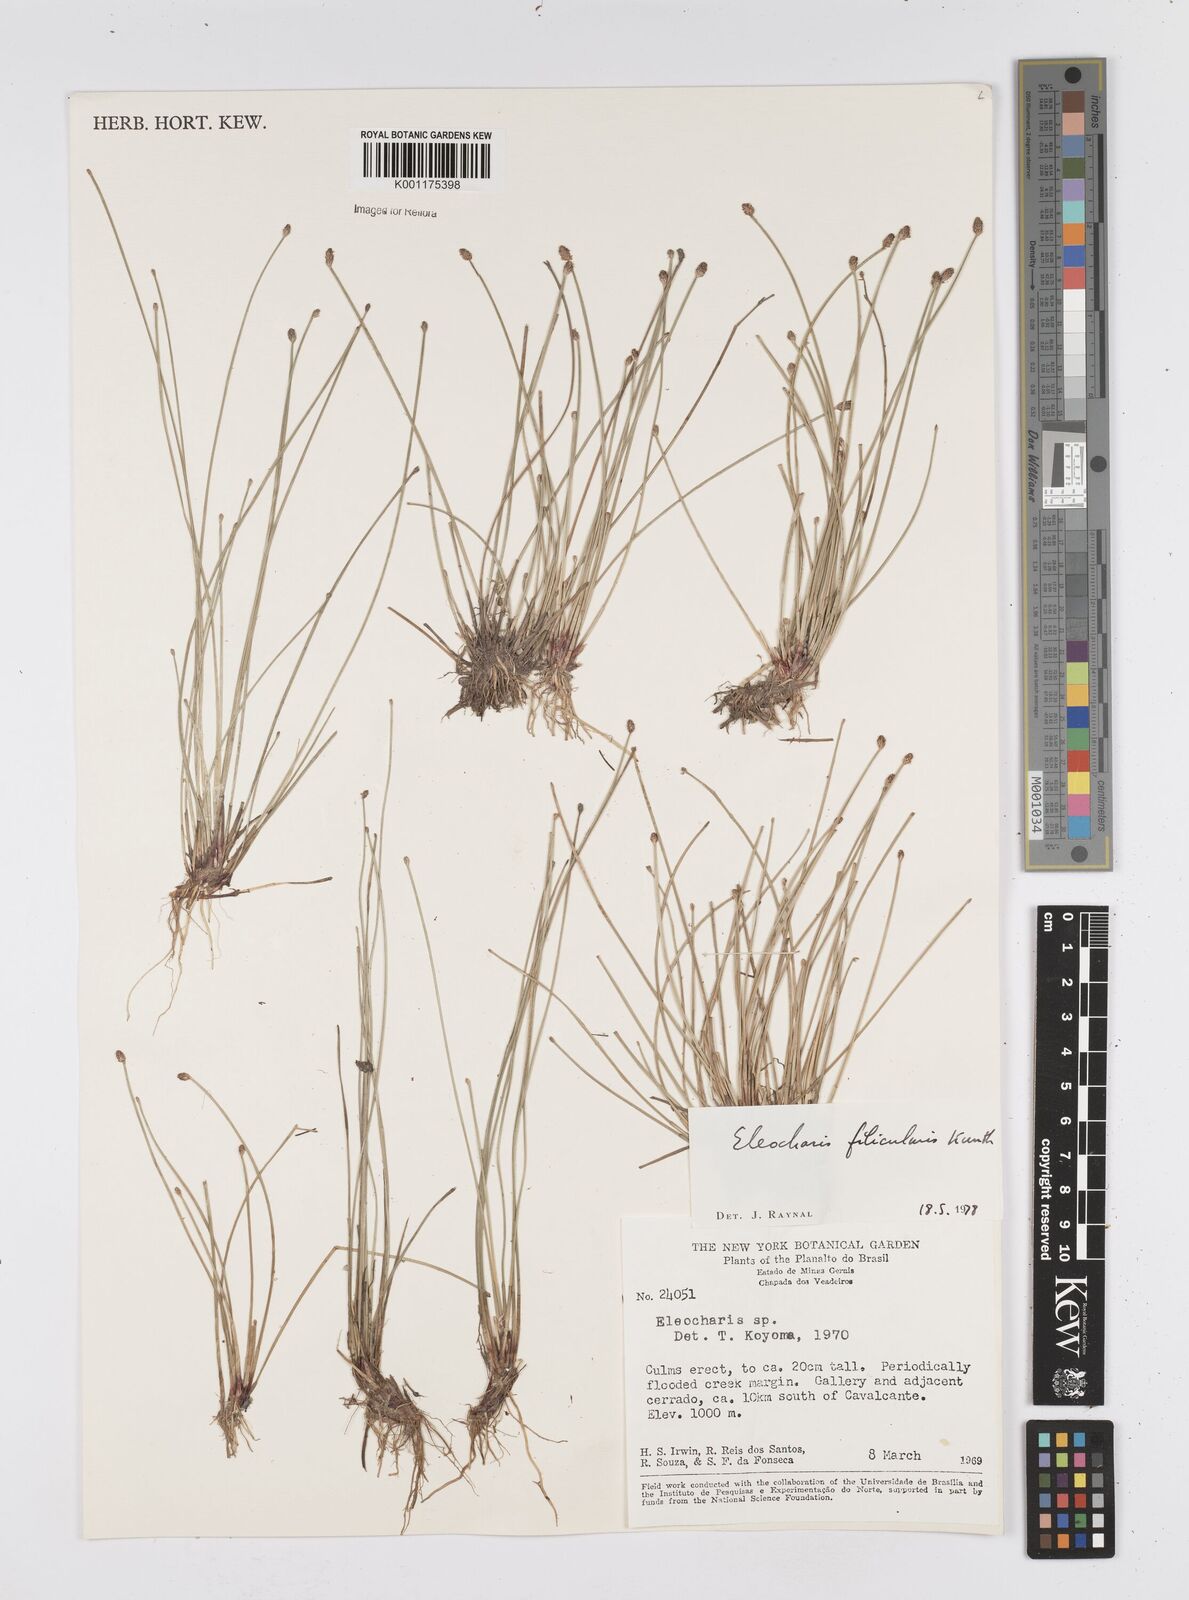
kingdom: Plantae
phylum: Tracheophyta
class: Liliopsida
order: Poales
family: Cyperaceae
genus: Eleocharis
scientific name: Eleocharis filiculmis
